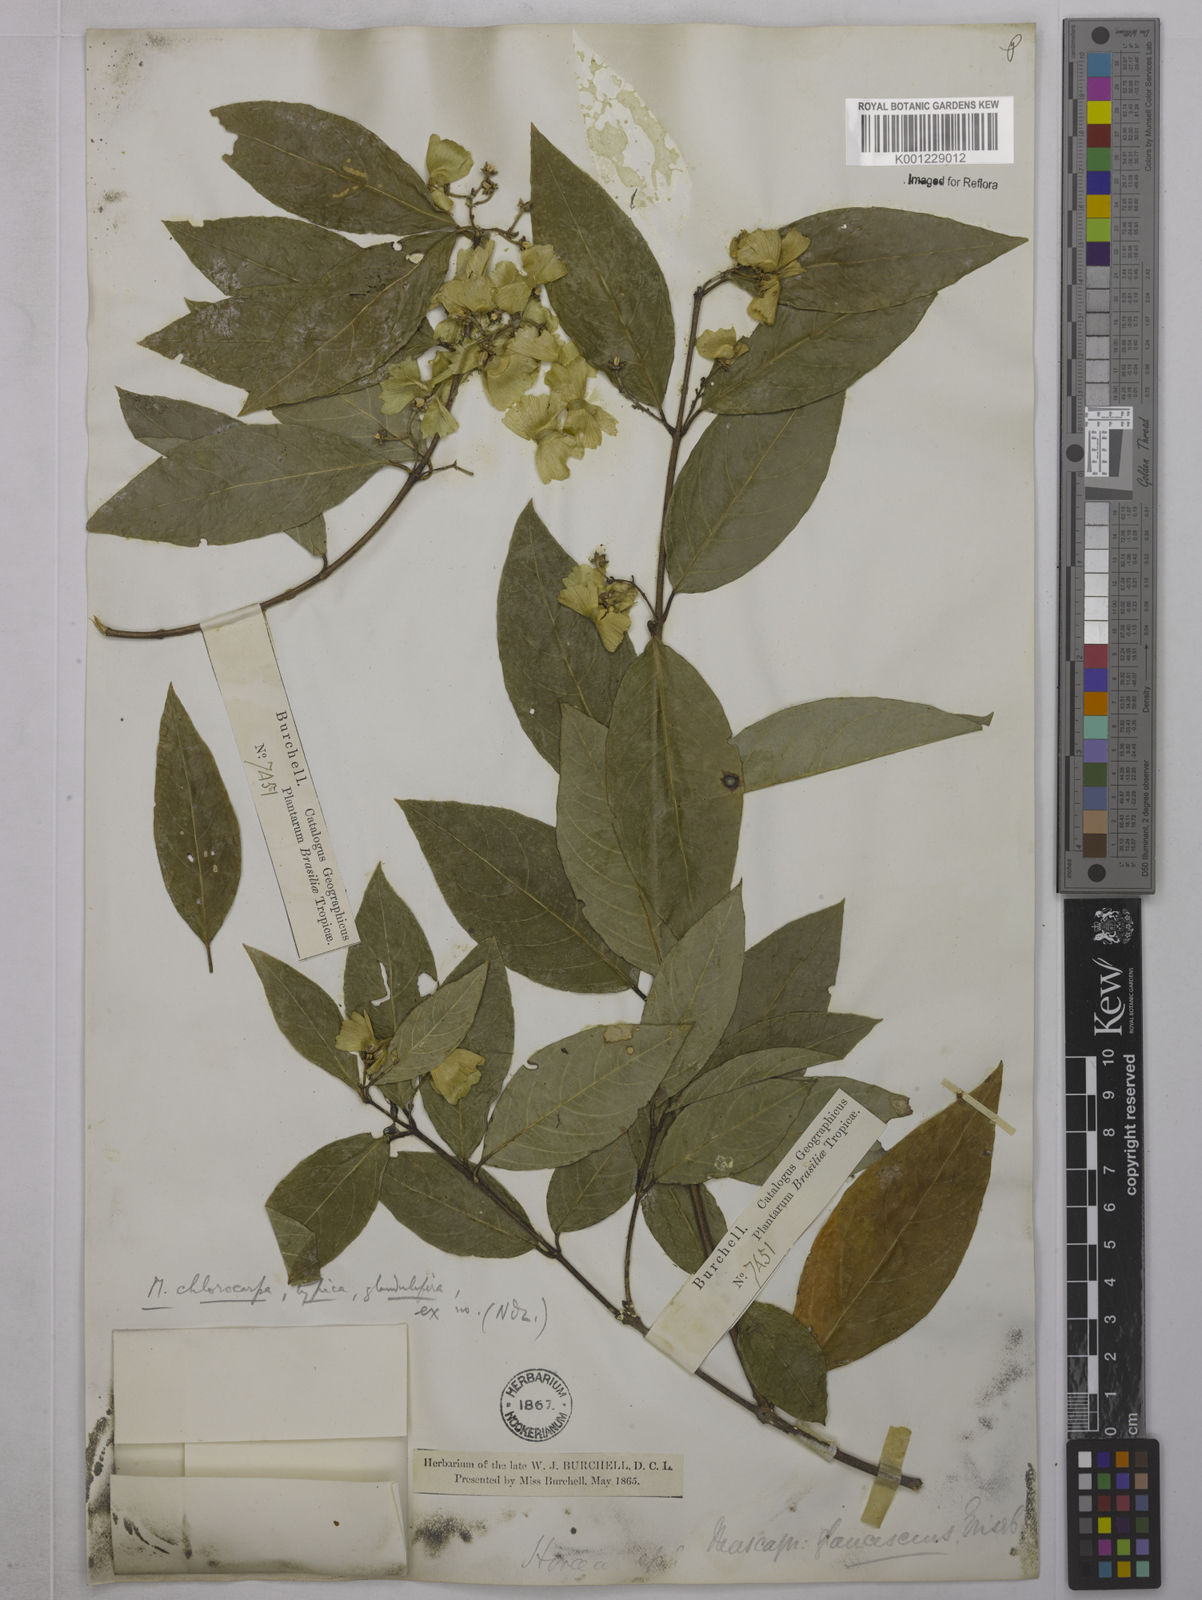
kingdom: Plantae
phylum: Tracheophyta
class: Magnoliopsida
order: Malpighiales
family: Malpighiaceae
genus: Carolus
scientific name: Carolus chlorocarpus
